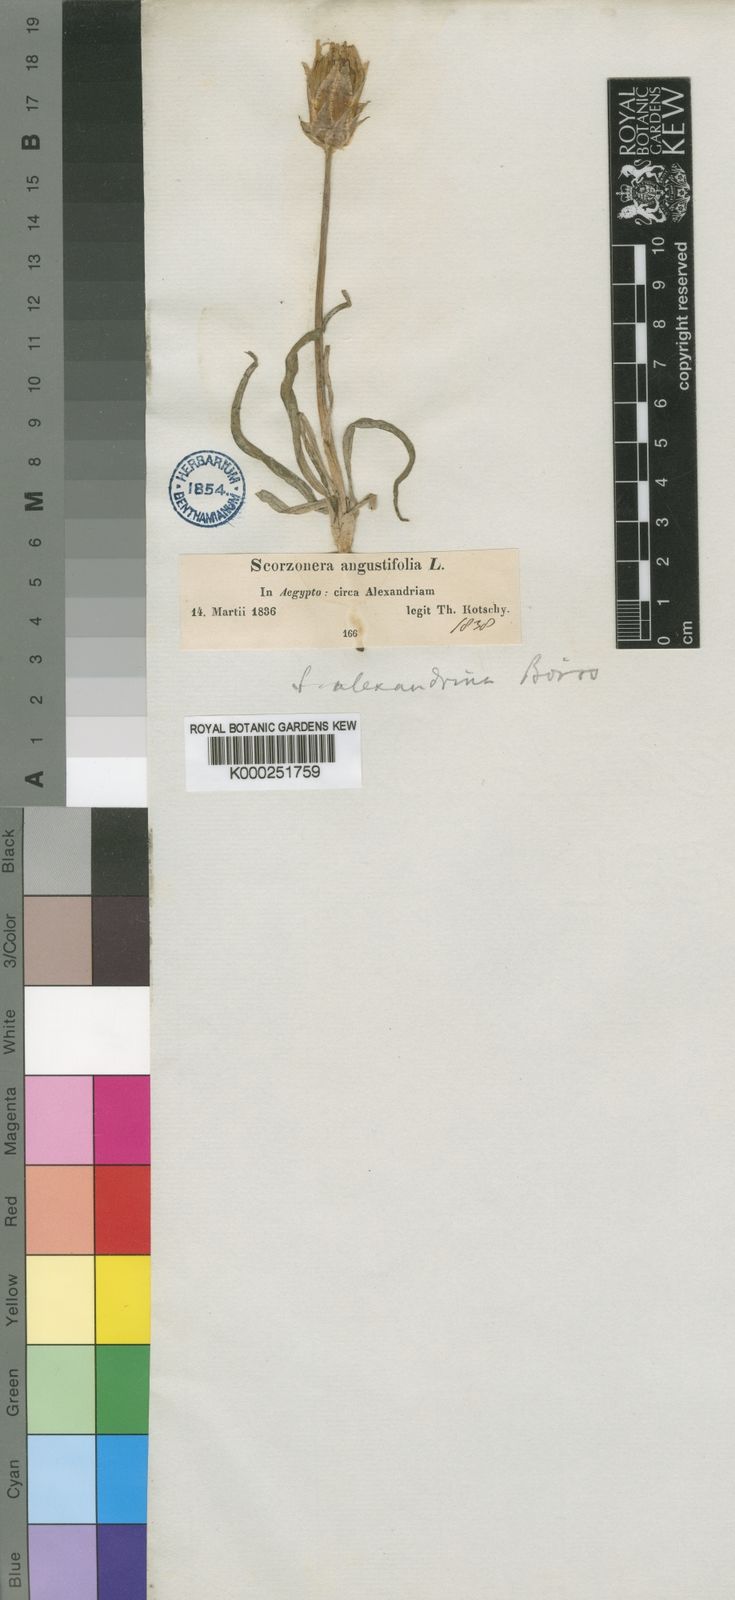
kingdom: Plantae
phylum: Tracheophyta
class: Magnoliopsida
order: Asterales
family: Asteraceae
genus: Pseudopodospermum
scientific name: Pseudopodospermum undulatum
